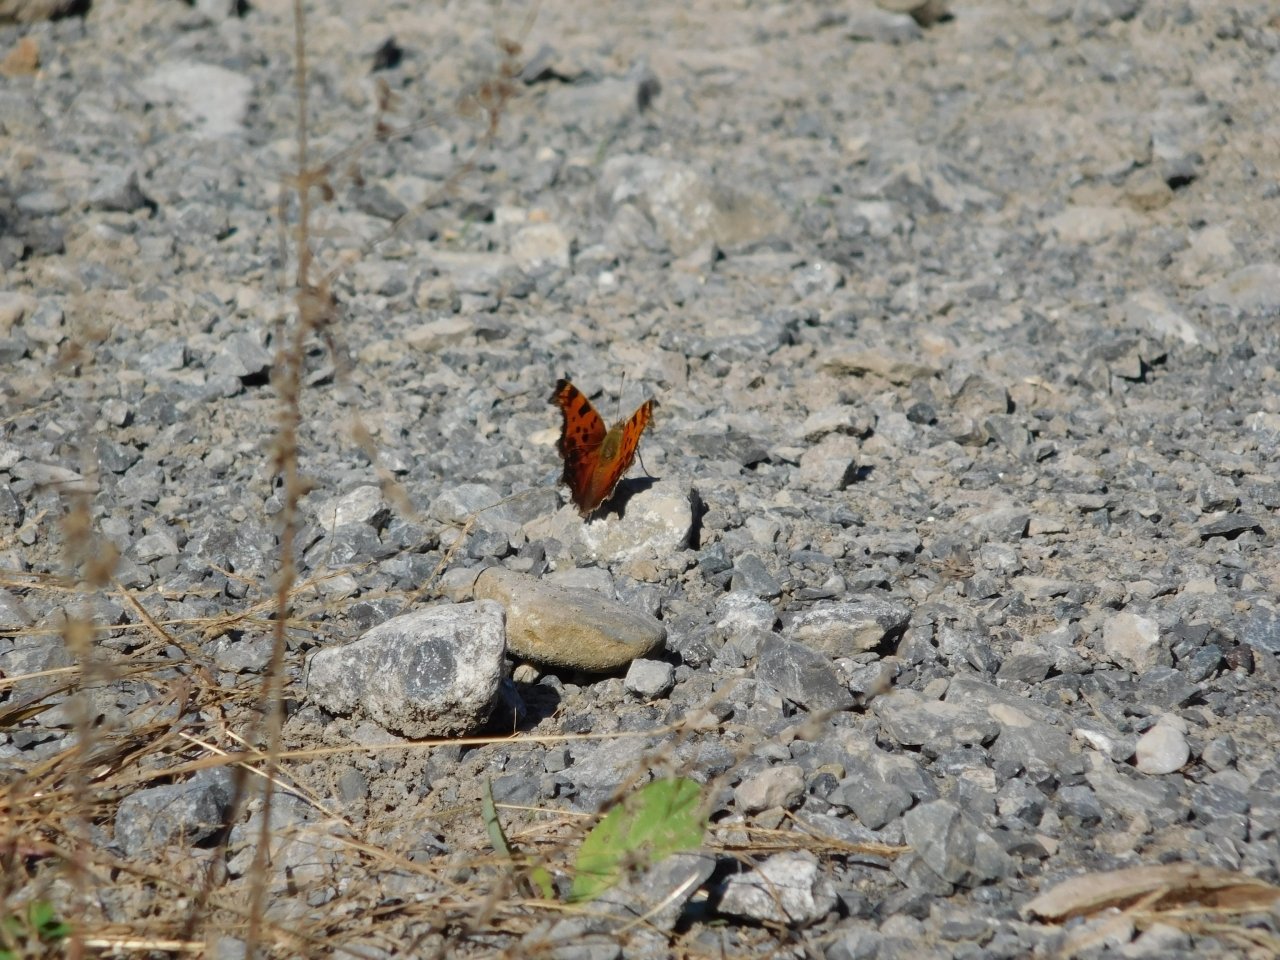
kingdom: Animalia
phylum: Arthropoda
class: Insecta
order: Lepidoptera
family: Nymphalidae
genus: Polygonia
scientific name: Polygonia comma
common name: Eastern Comma
